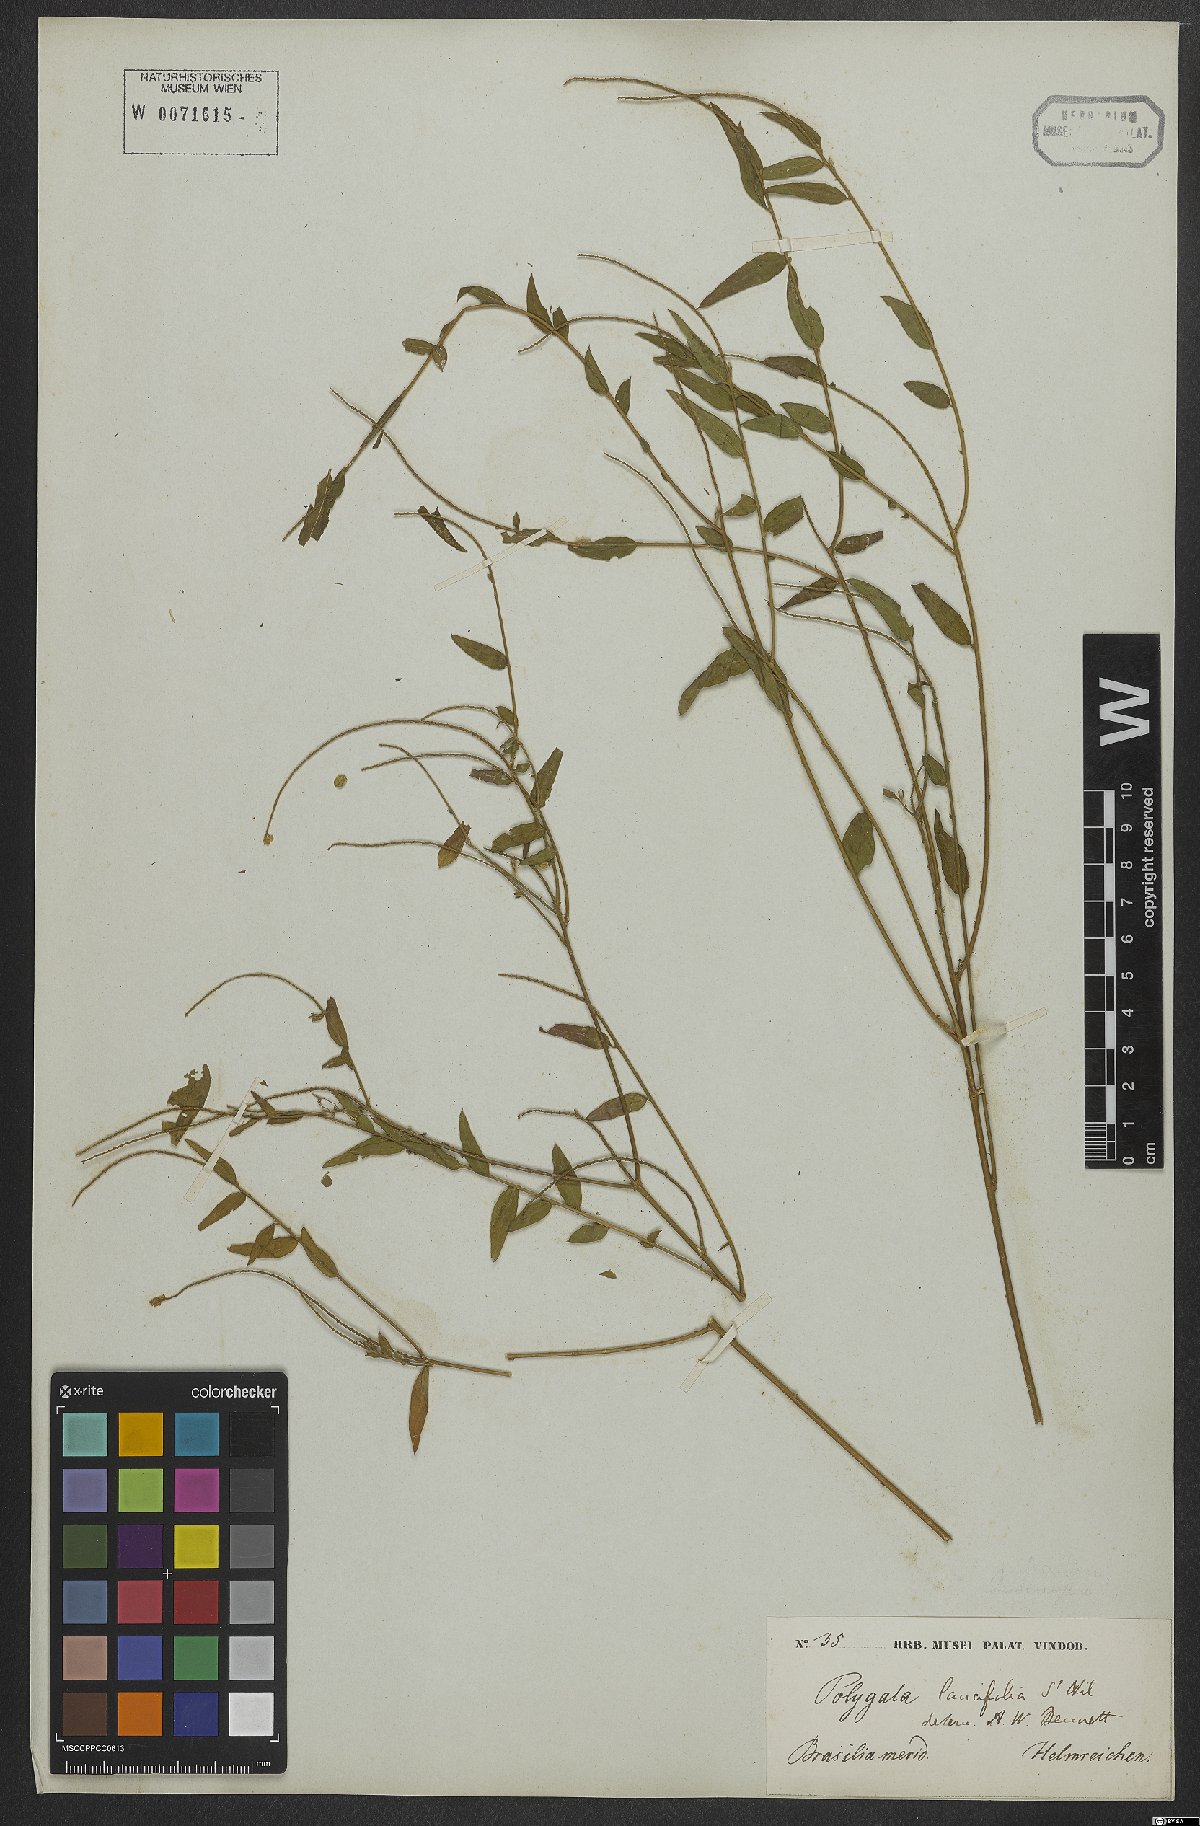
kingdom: Plantae
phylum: Tracheophyta
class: Magnoliopsida
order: Fabales
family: Polygalaceae
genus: Polygala
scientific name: Polygala lancifolia
